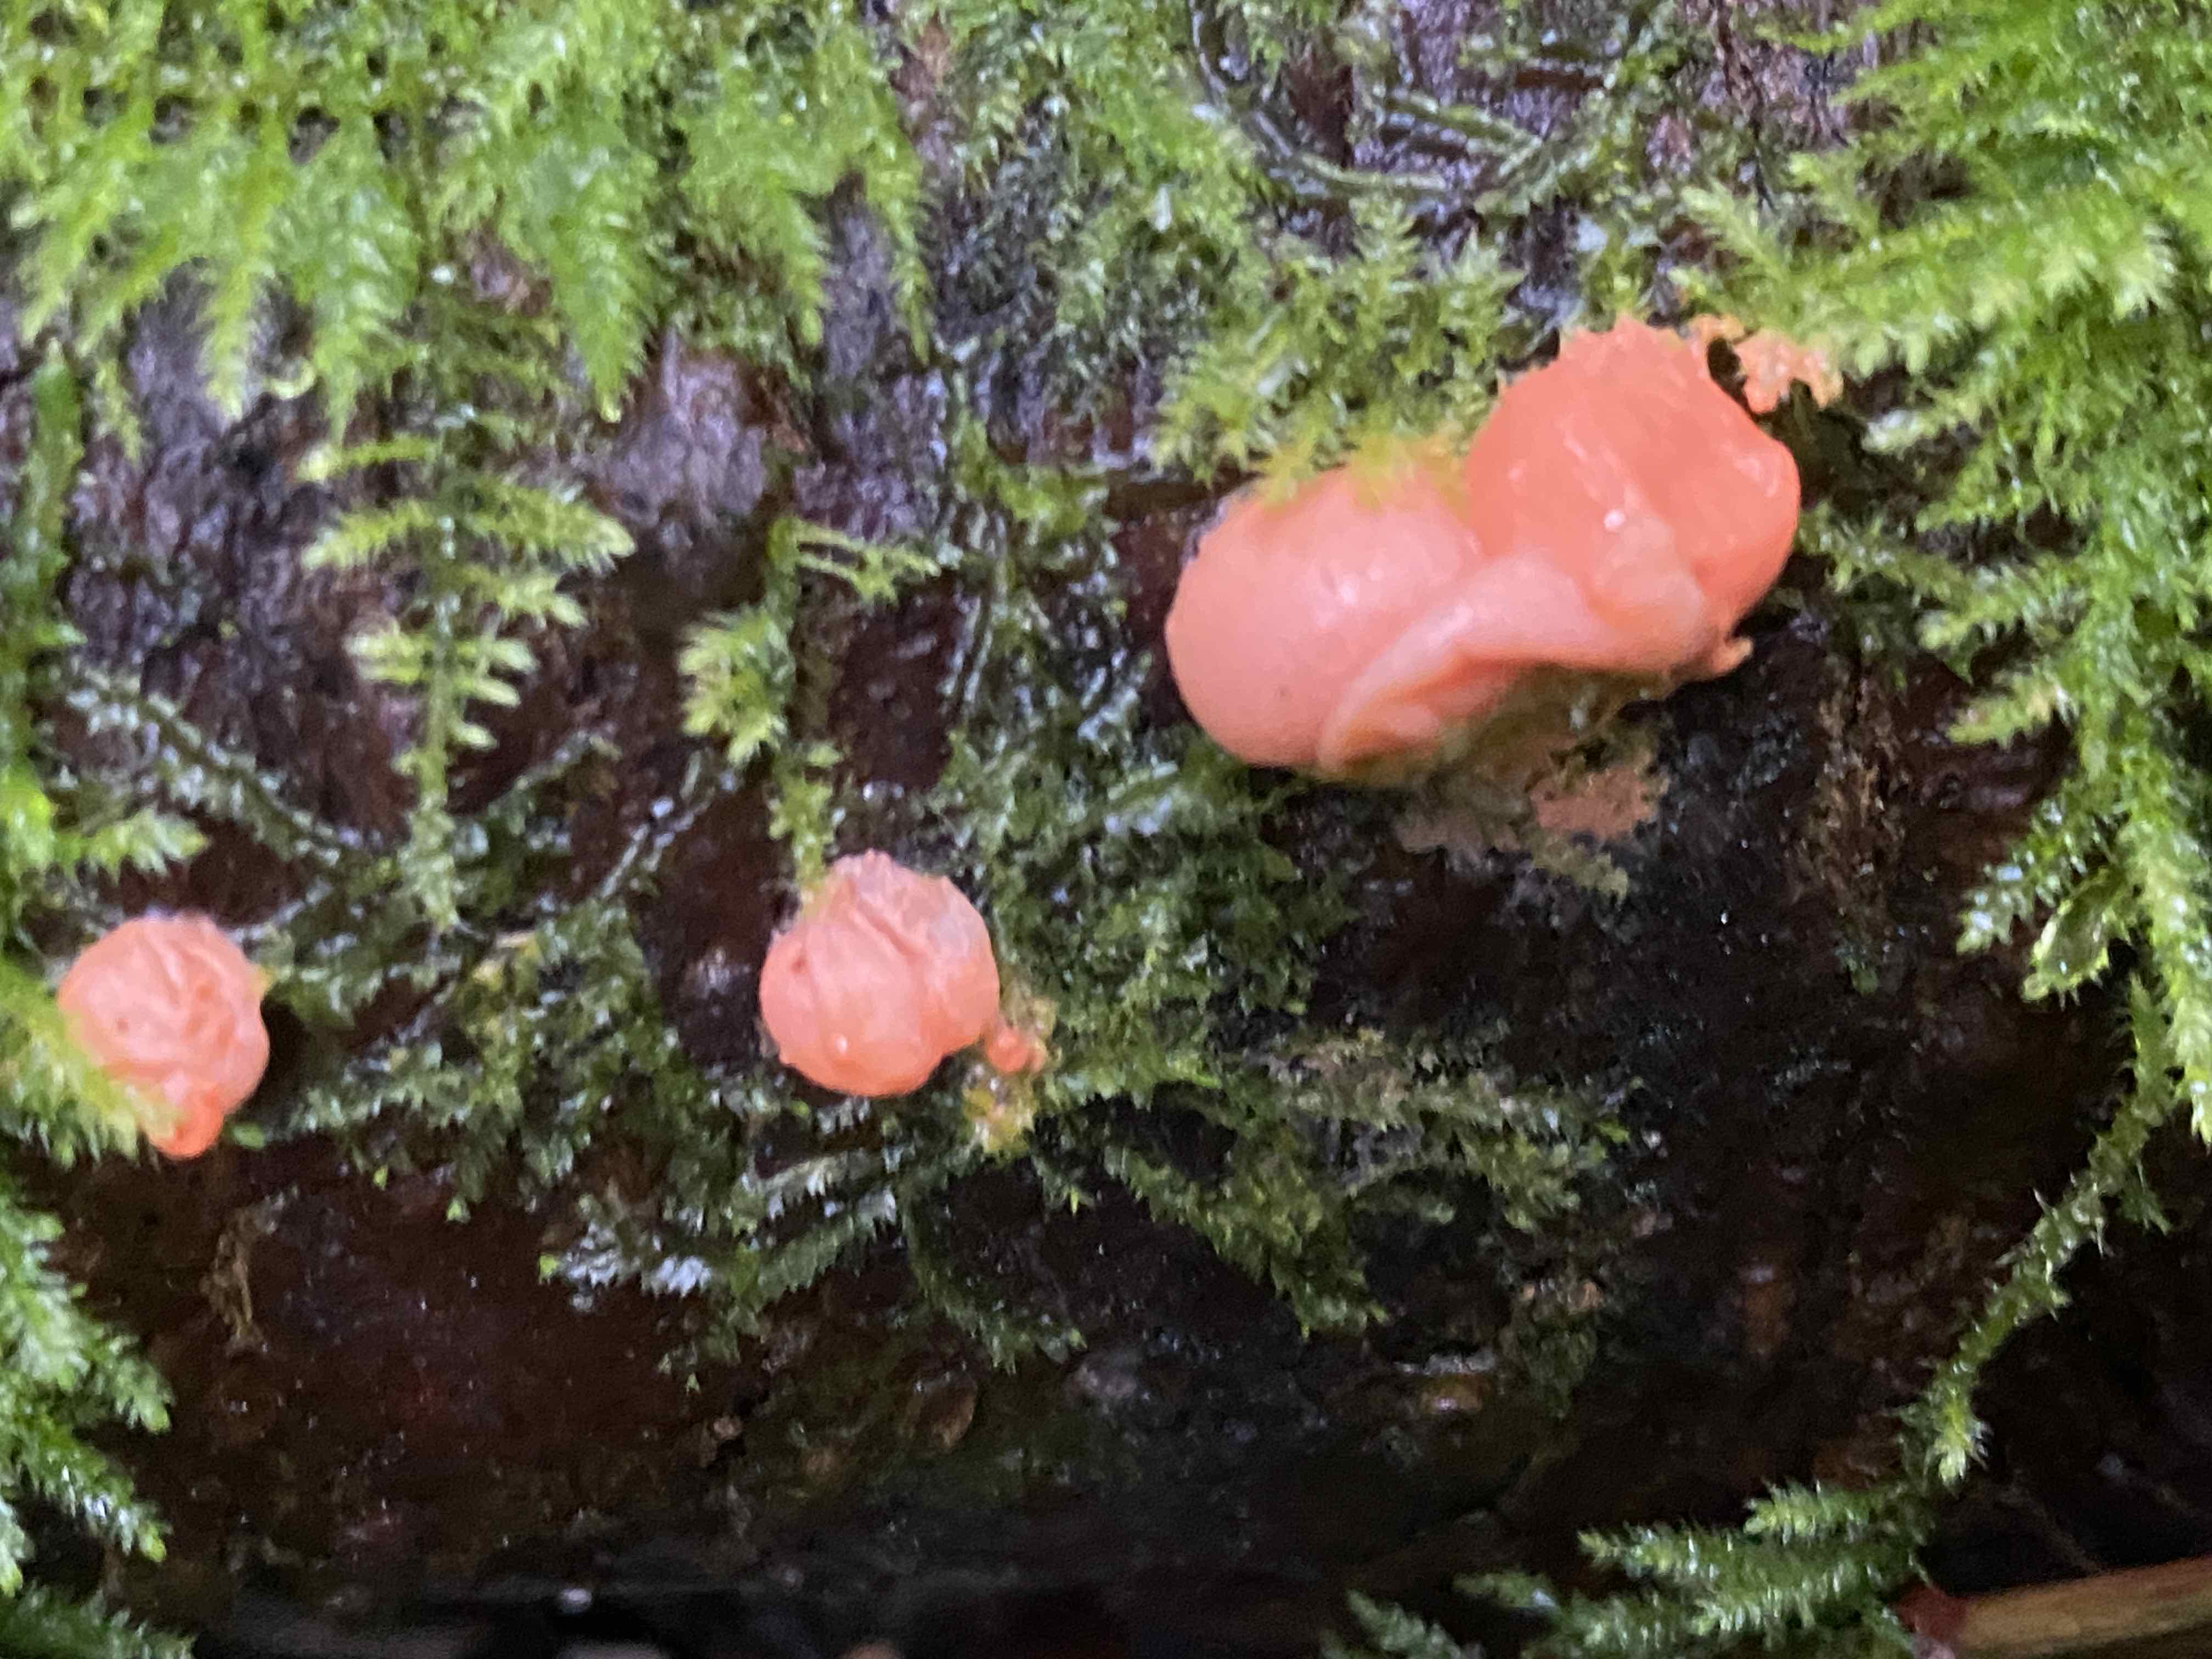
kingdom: Protozoa
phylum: Mycetozoa
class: Myxomycetes
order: Cribrariales
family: Tubiferaceae
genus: Lycogala
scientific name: Lycogala
